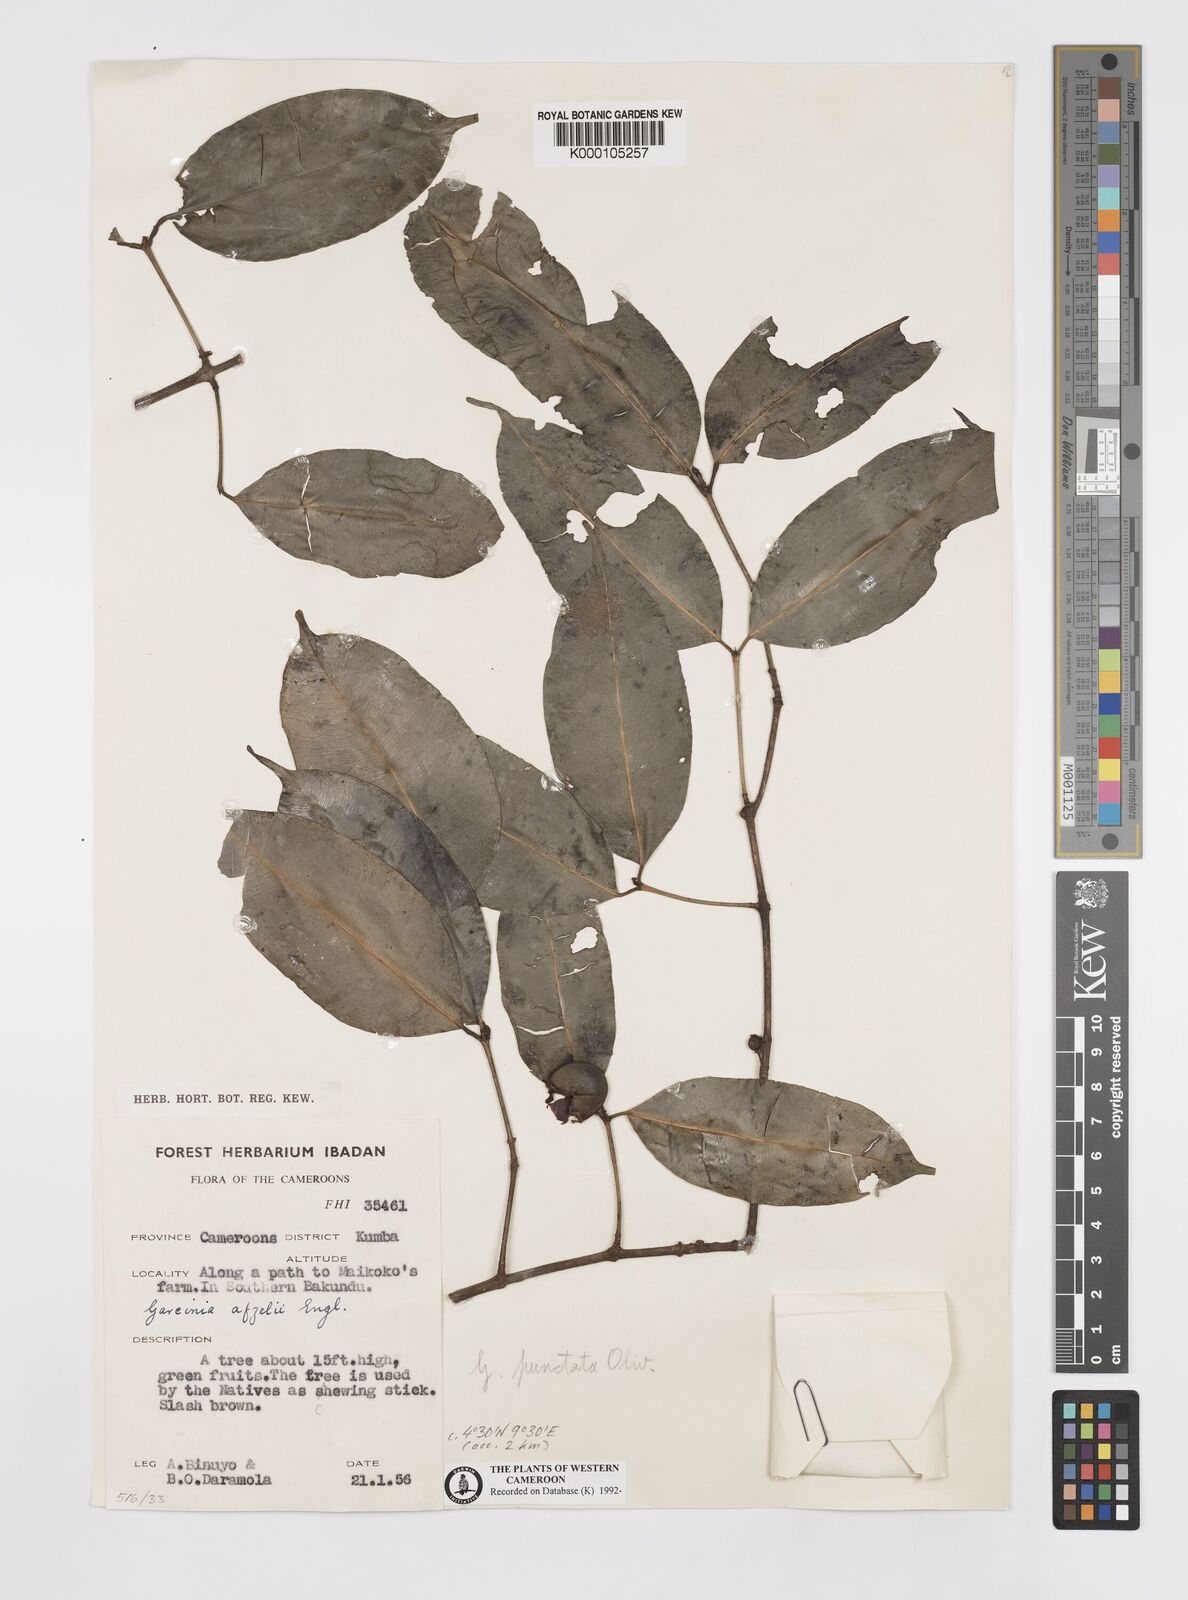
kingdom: Plantae
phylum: Tracheophyta
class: Magnoliopsida
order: Malpighiales
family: Clusiaceae
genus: Garcinia
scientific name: Garcinia punctata
